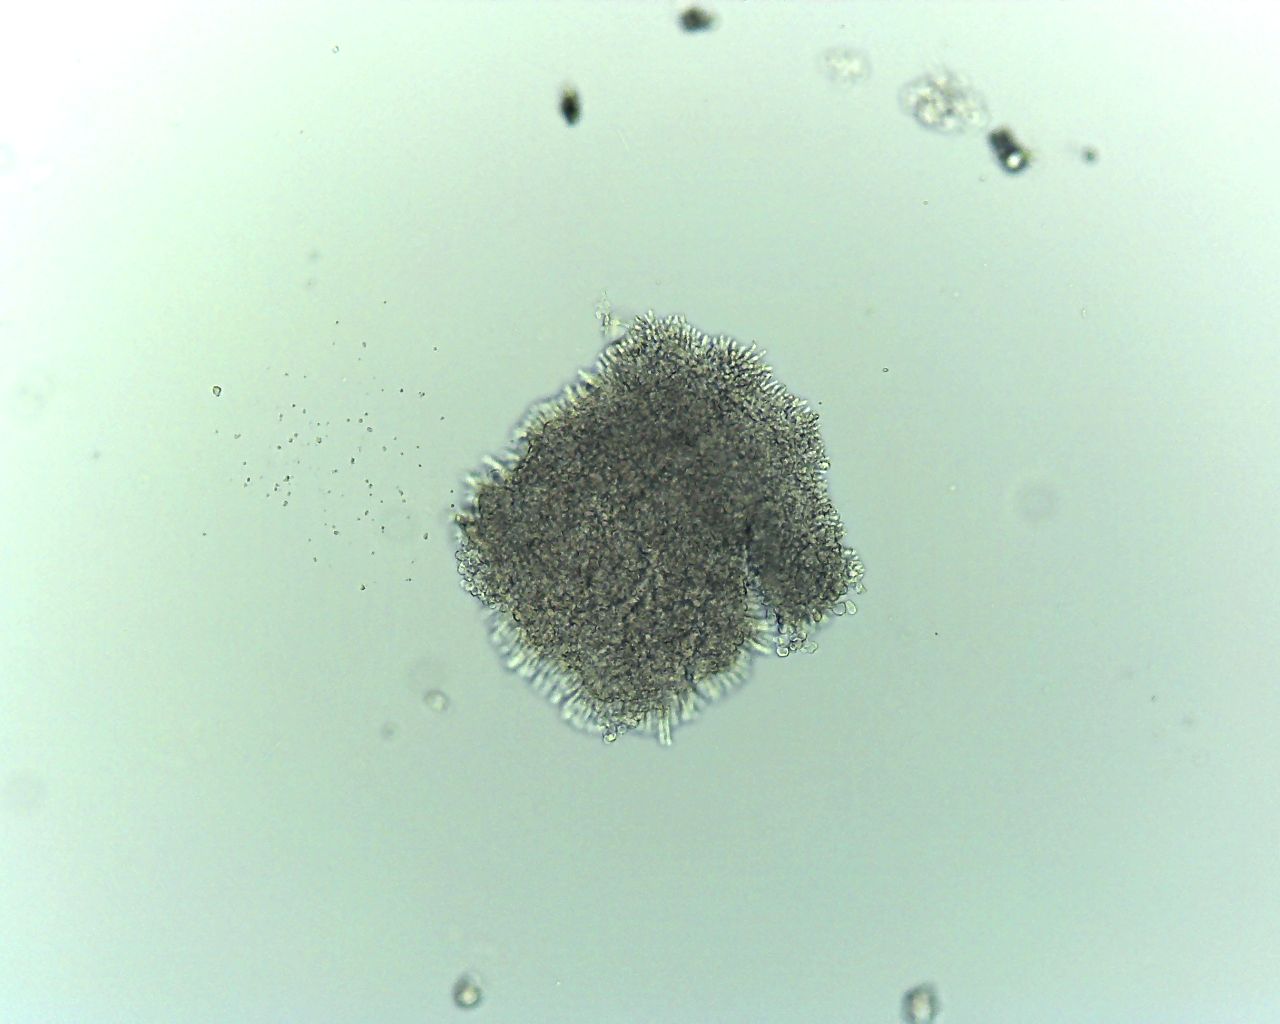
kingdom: Fungi
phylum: Ascomycota
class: Leotiomycetes
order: Rhytismatales
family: Rhytismataceae
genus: Lophodermium
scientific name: Lophodermium foliicola
